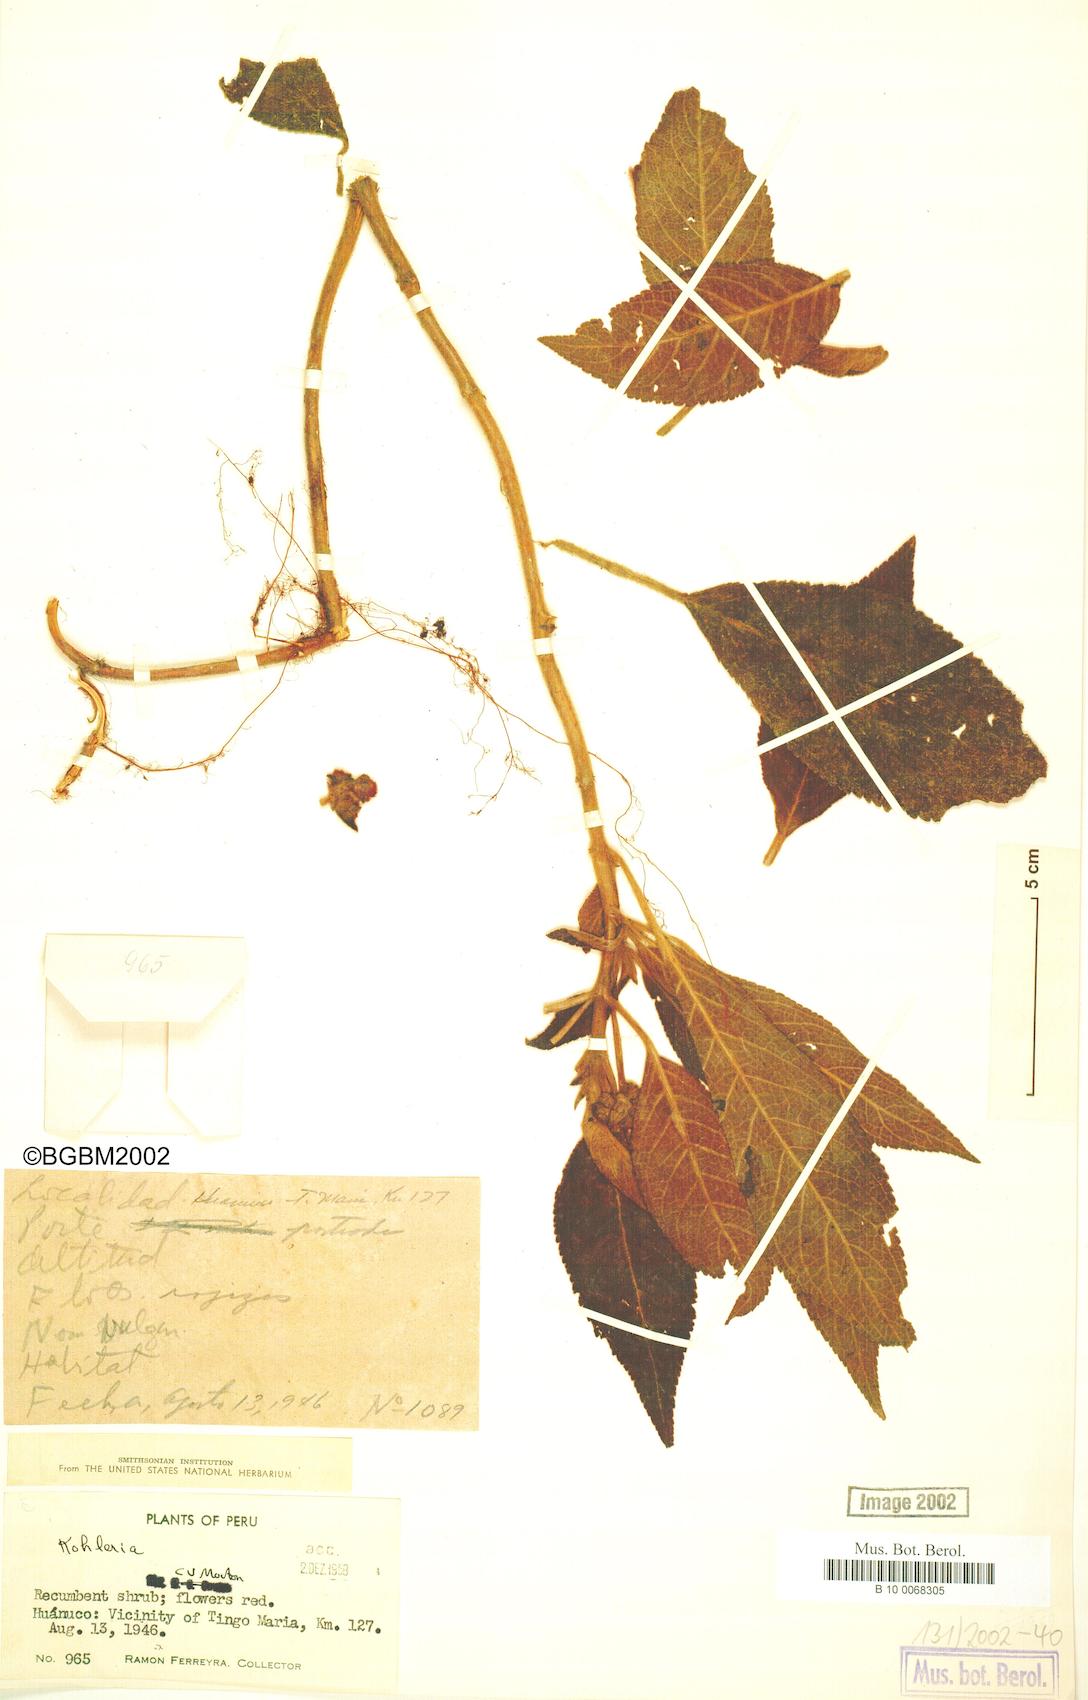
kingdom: Plantae
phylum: Tracheophyta
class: Magnoliopsida
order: Lamiales
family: Gesneriaceae
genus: Kohleria
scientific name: Kohleria
